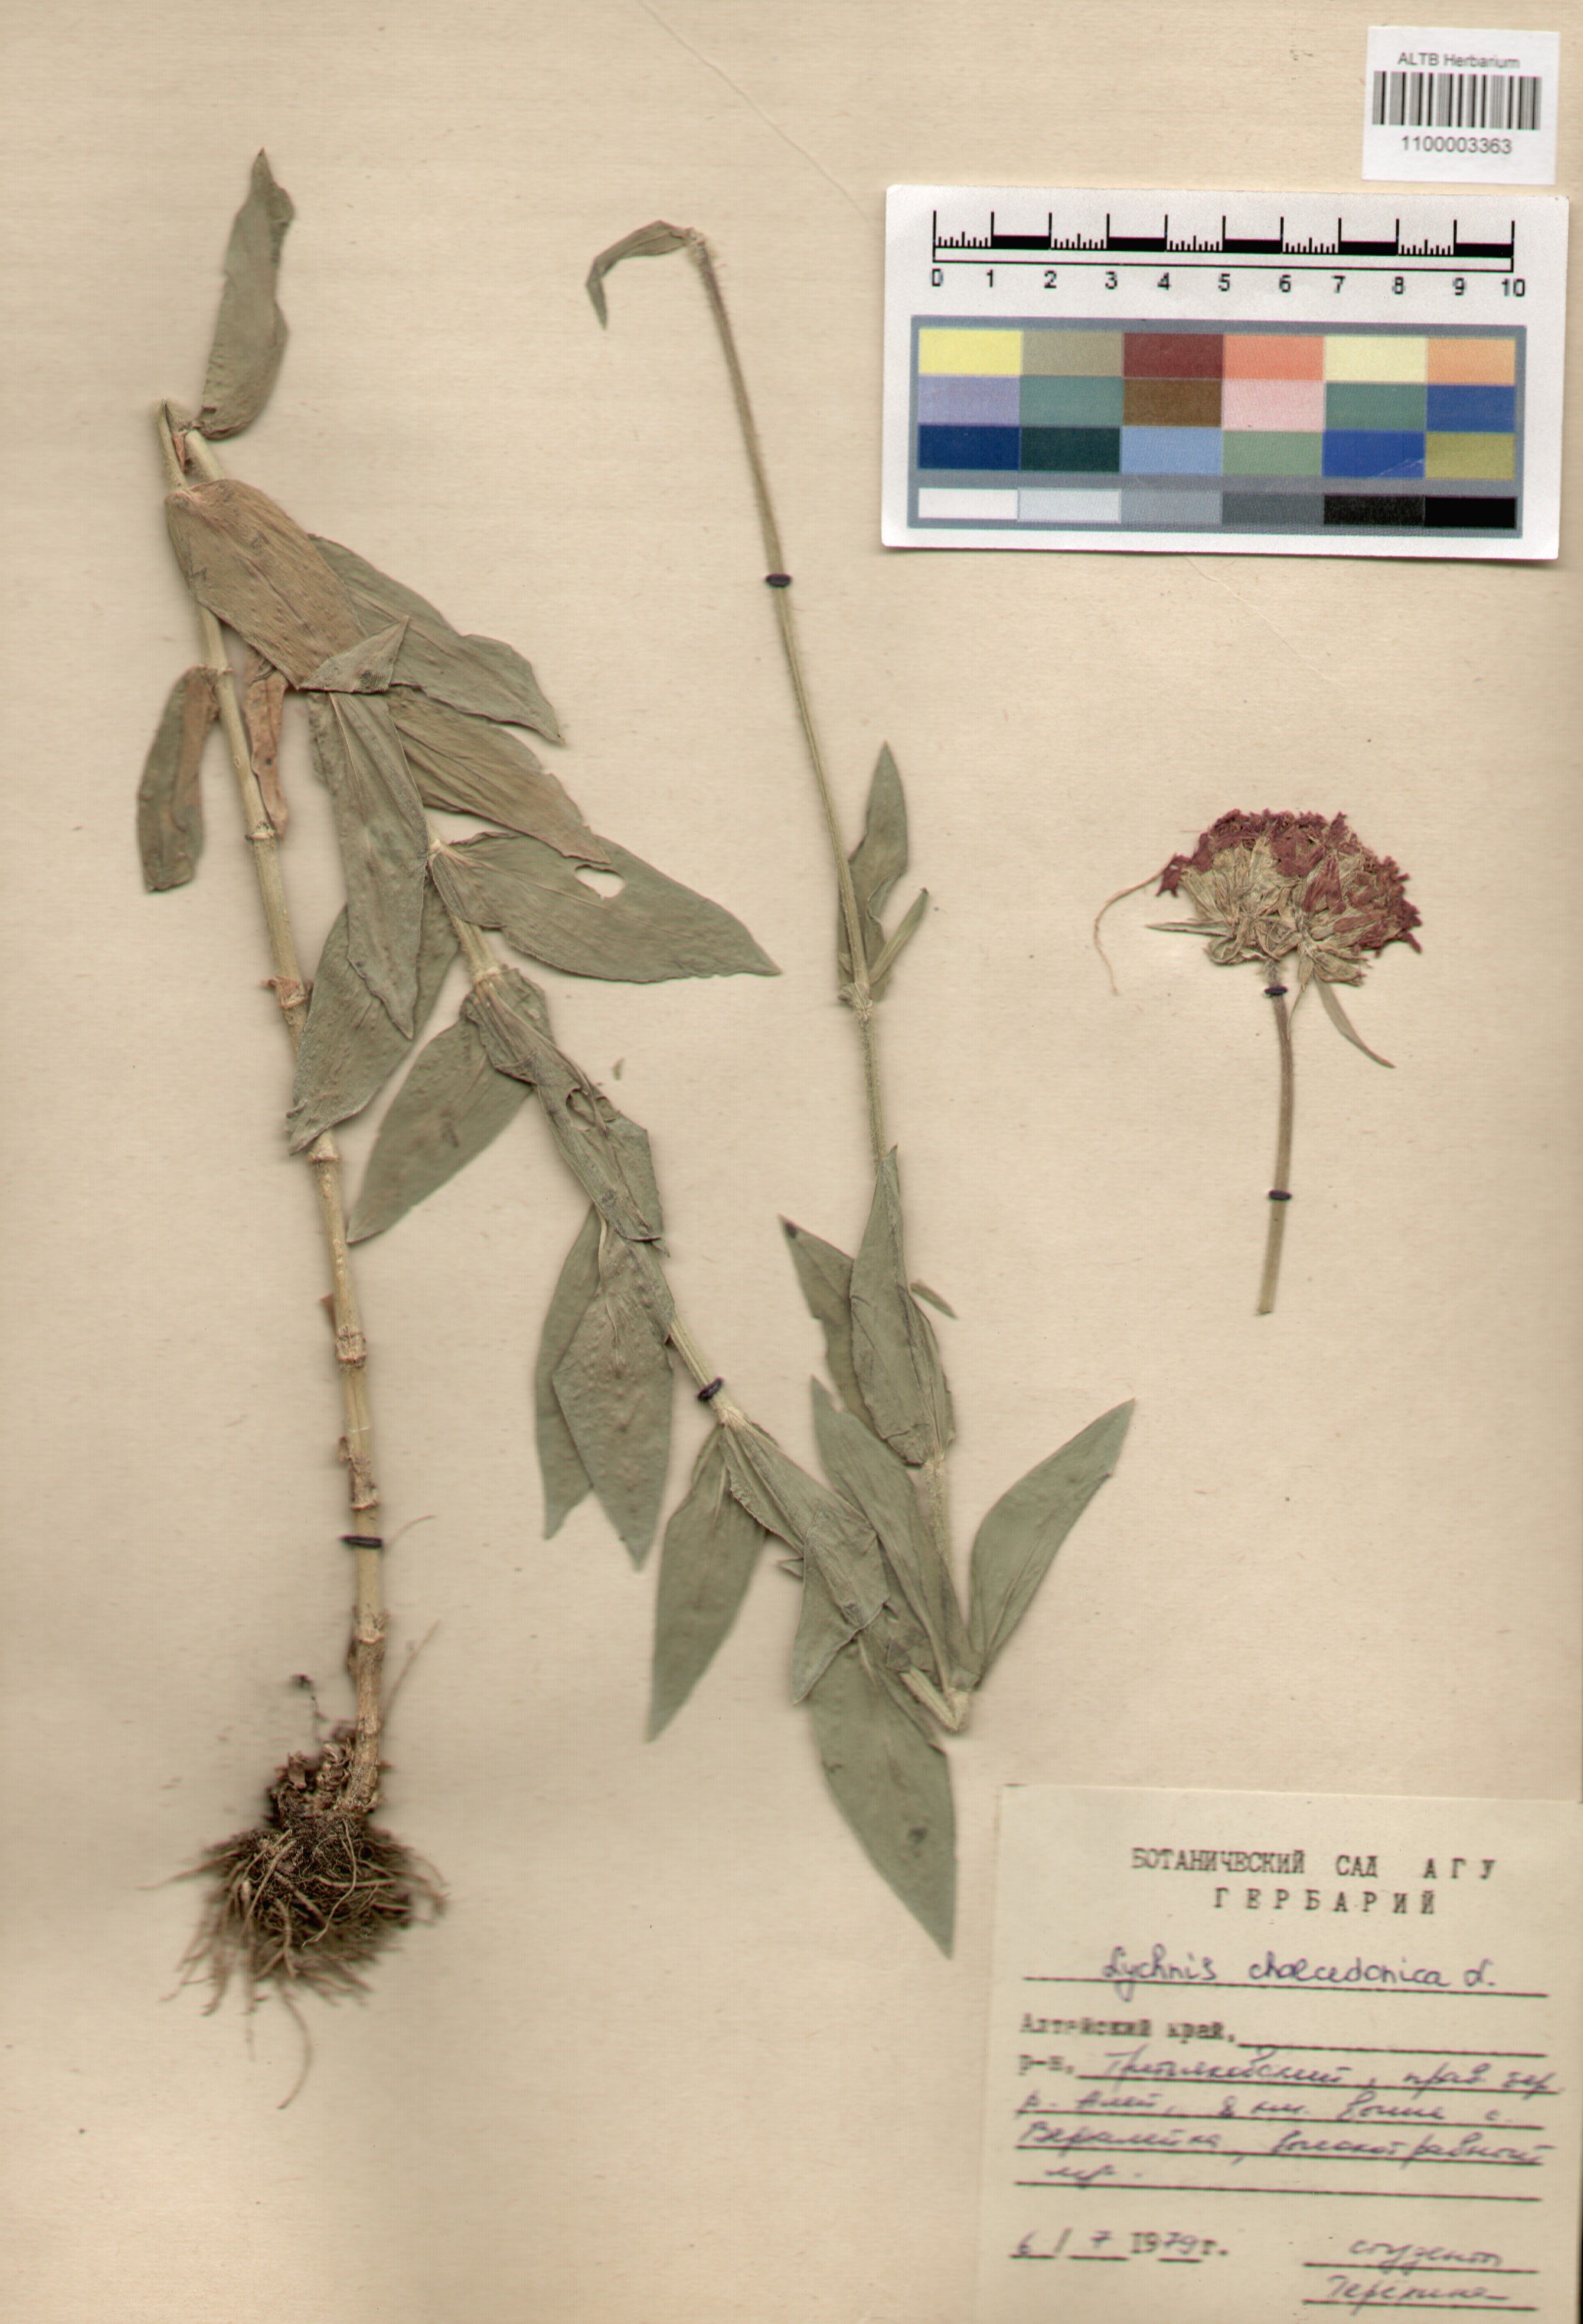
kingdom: Plantae
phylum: Tracheophyta
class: Magnoliopsida
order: Caryophyllales
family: Caryophyllaceae
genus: Silene
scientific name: Silene chalcedonica
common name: Maltese-cross
